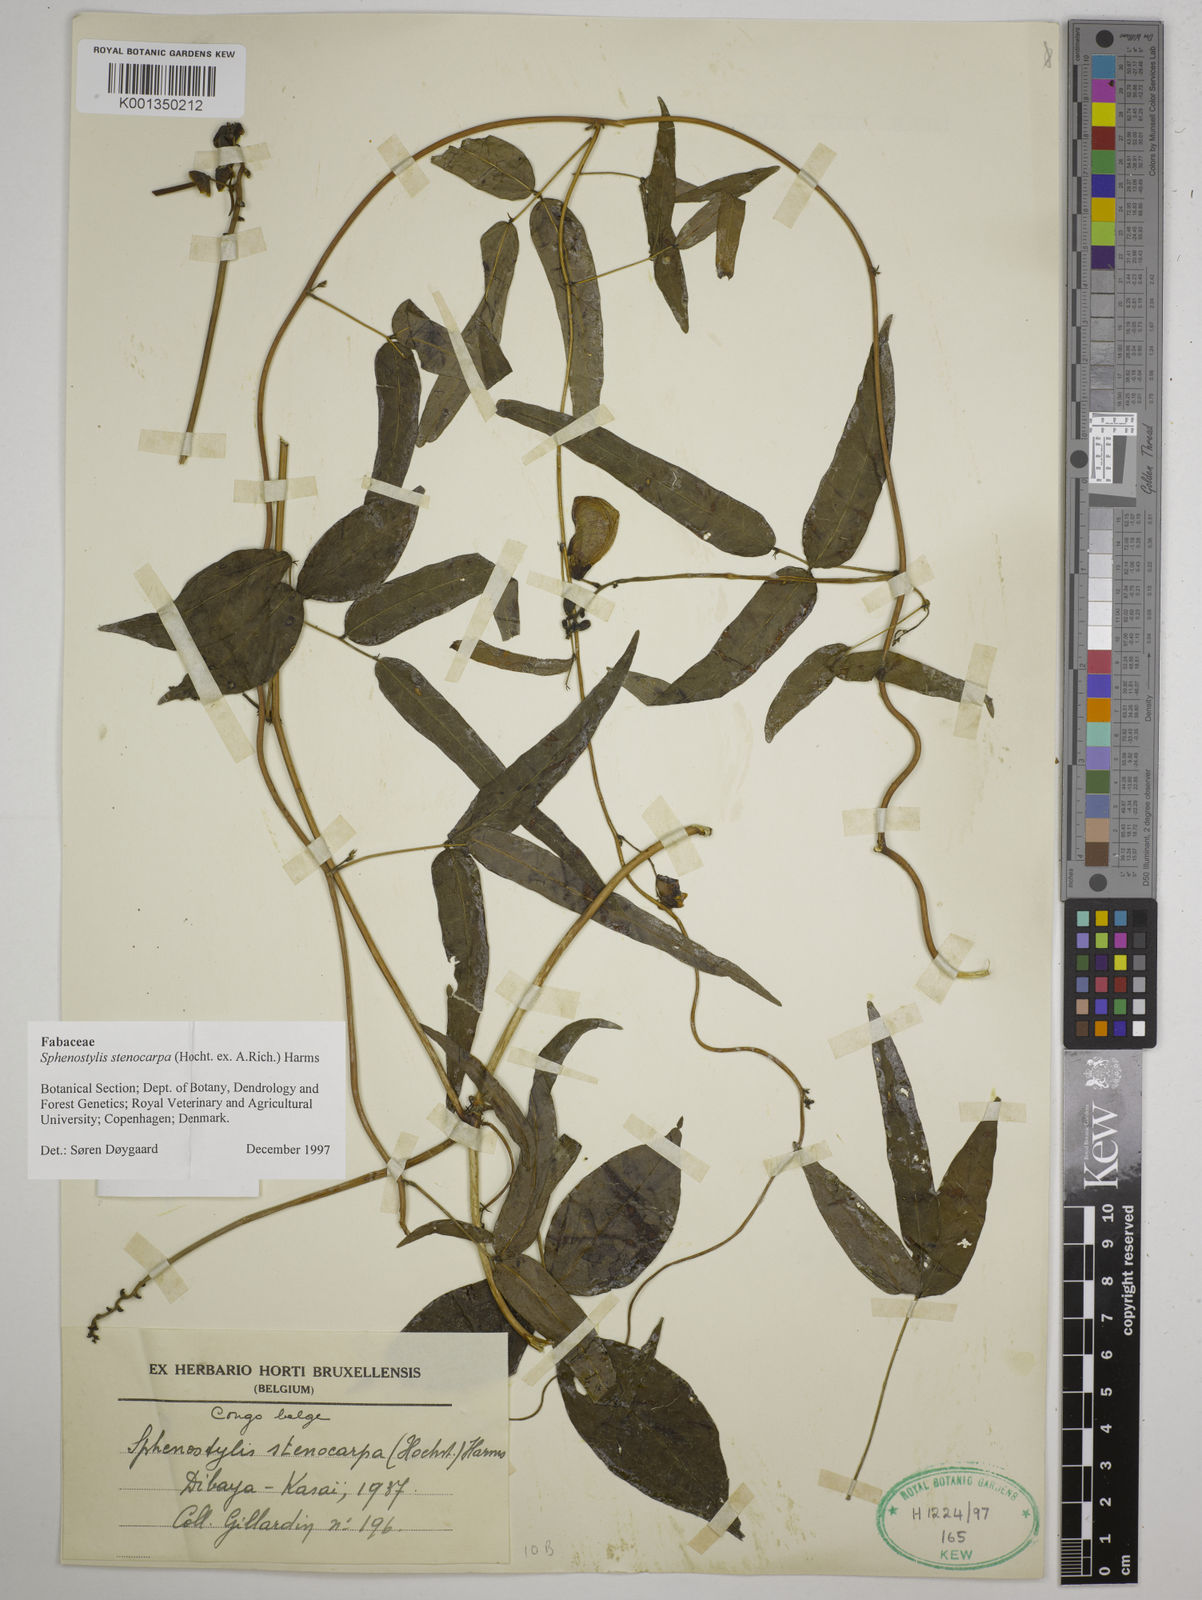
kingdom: Plantae
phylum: Tracheophyta
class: Magnoliopsida
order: Fabales
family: Fabaceae
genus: Sphenostylis
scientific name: Sphenostylis stenocarpa
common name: Yam-pea
